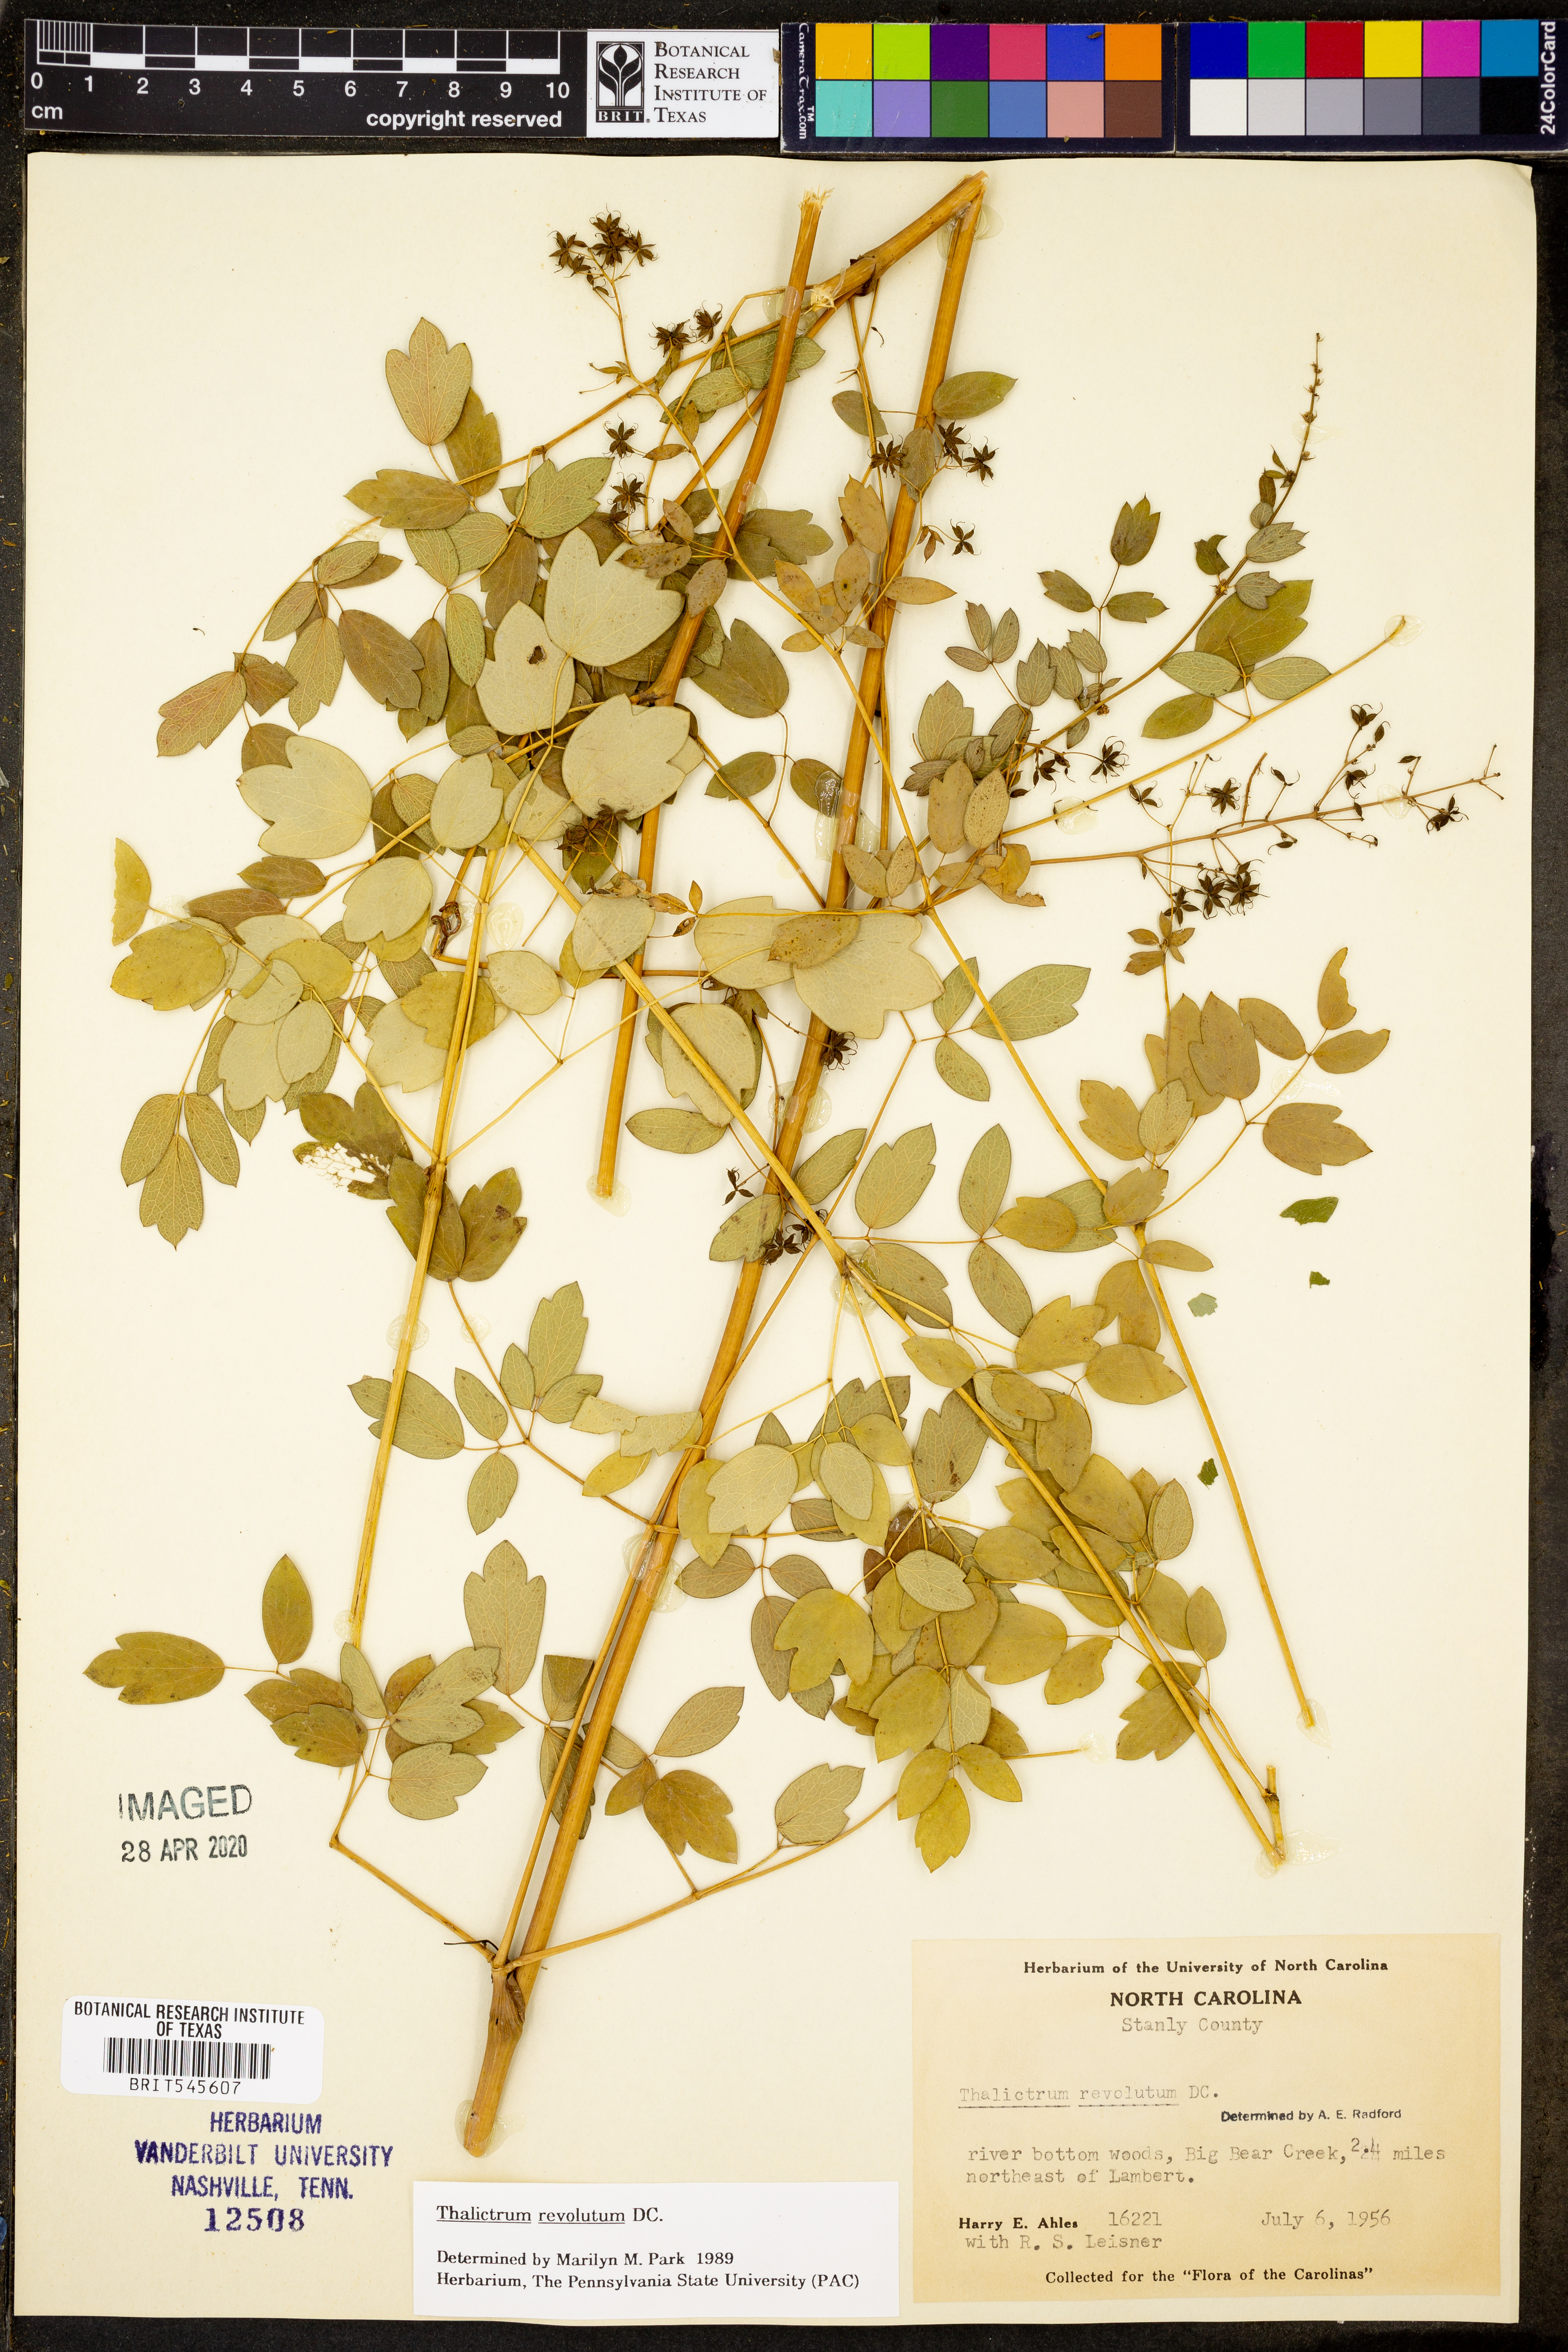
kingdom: Plantae
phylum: Tracheophyta
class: Magnoliopsida
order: Ranunculales
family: Ranunculaceae
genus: Thalictrum
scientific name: Thalictrum revolutum
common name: Waxy meadow-rue
